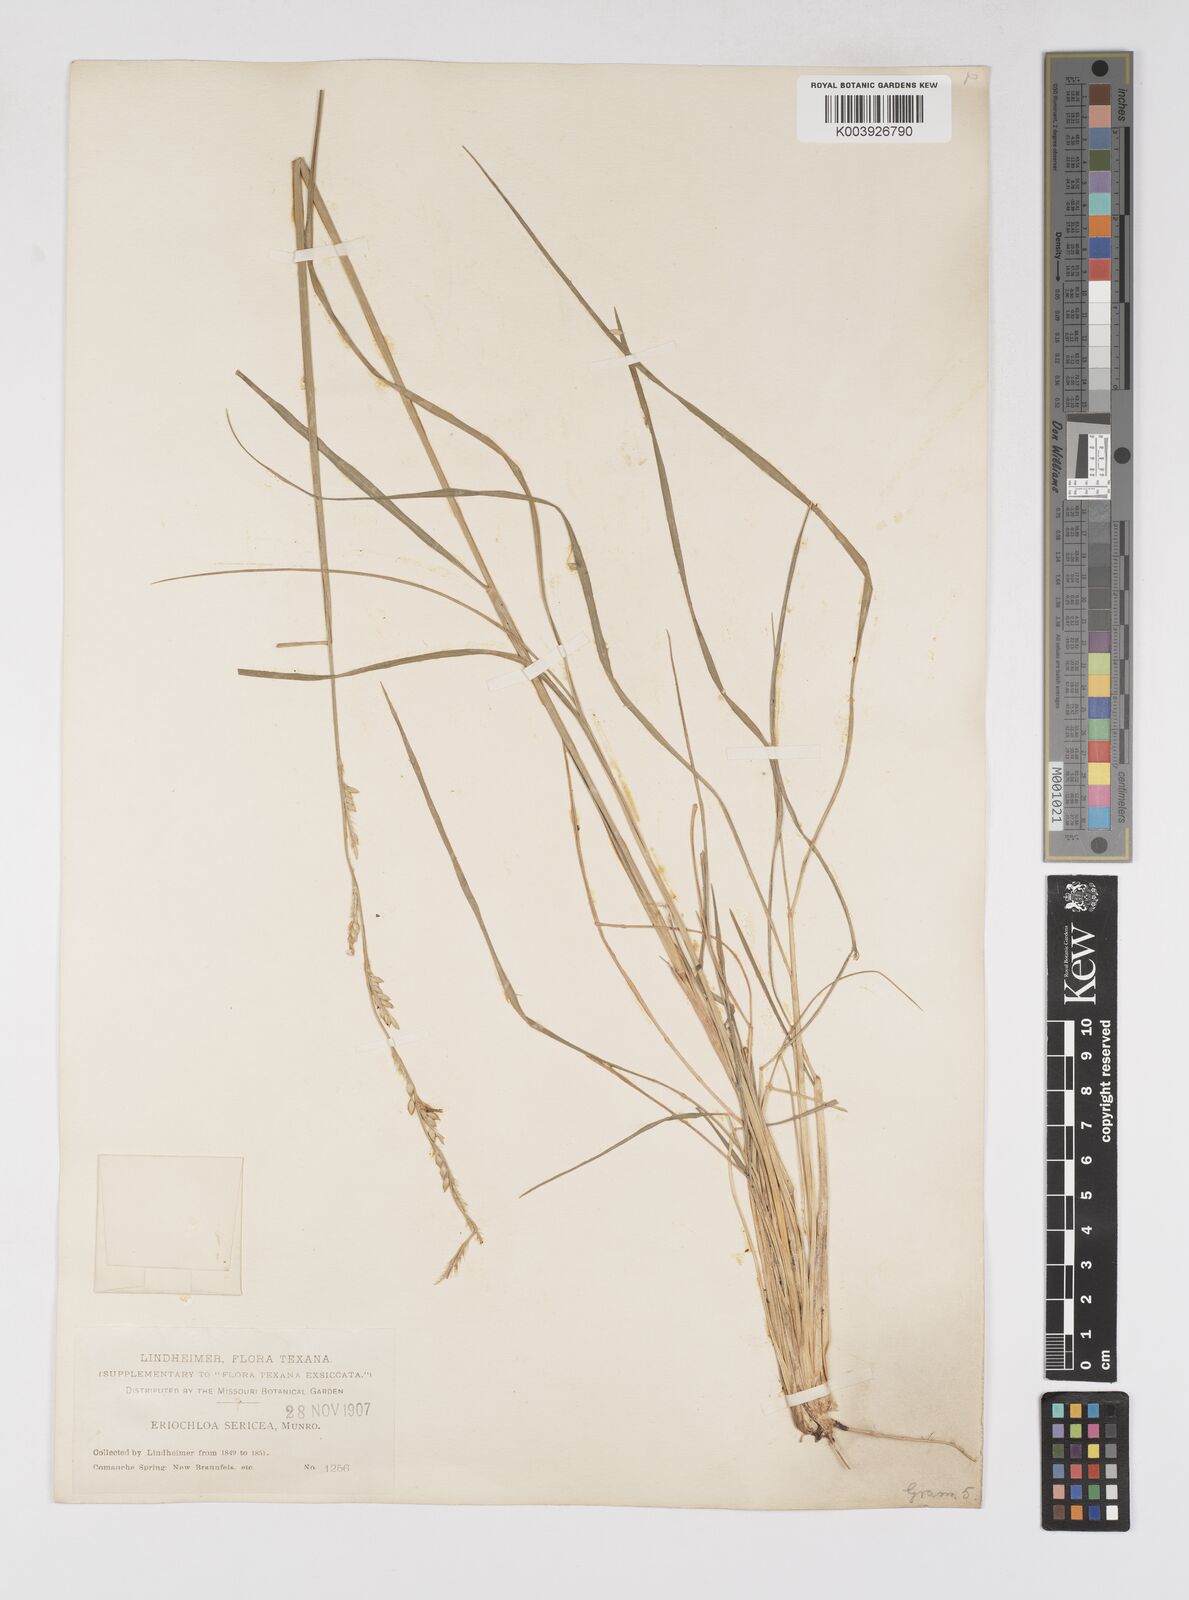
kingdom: Plantae
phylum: Tracheophyta
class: Liliopsida
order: Poales
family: Poaceae
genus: Eriochloa
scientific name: Eriochloa sericea
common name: Texas cup grass
